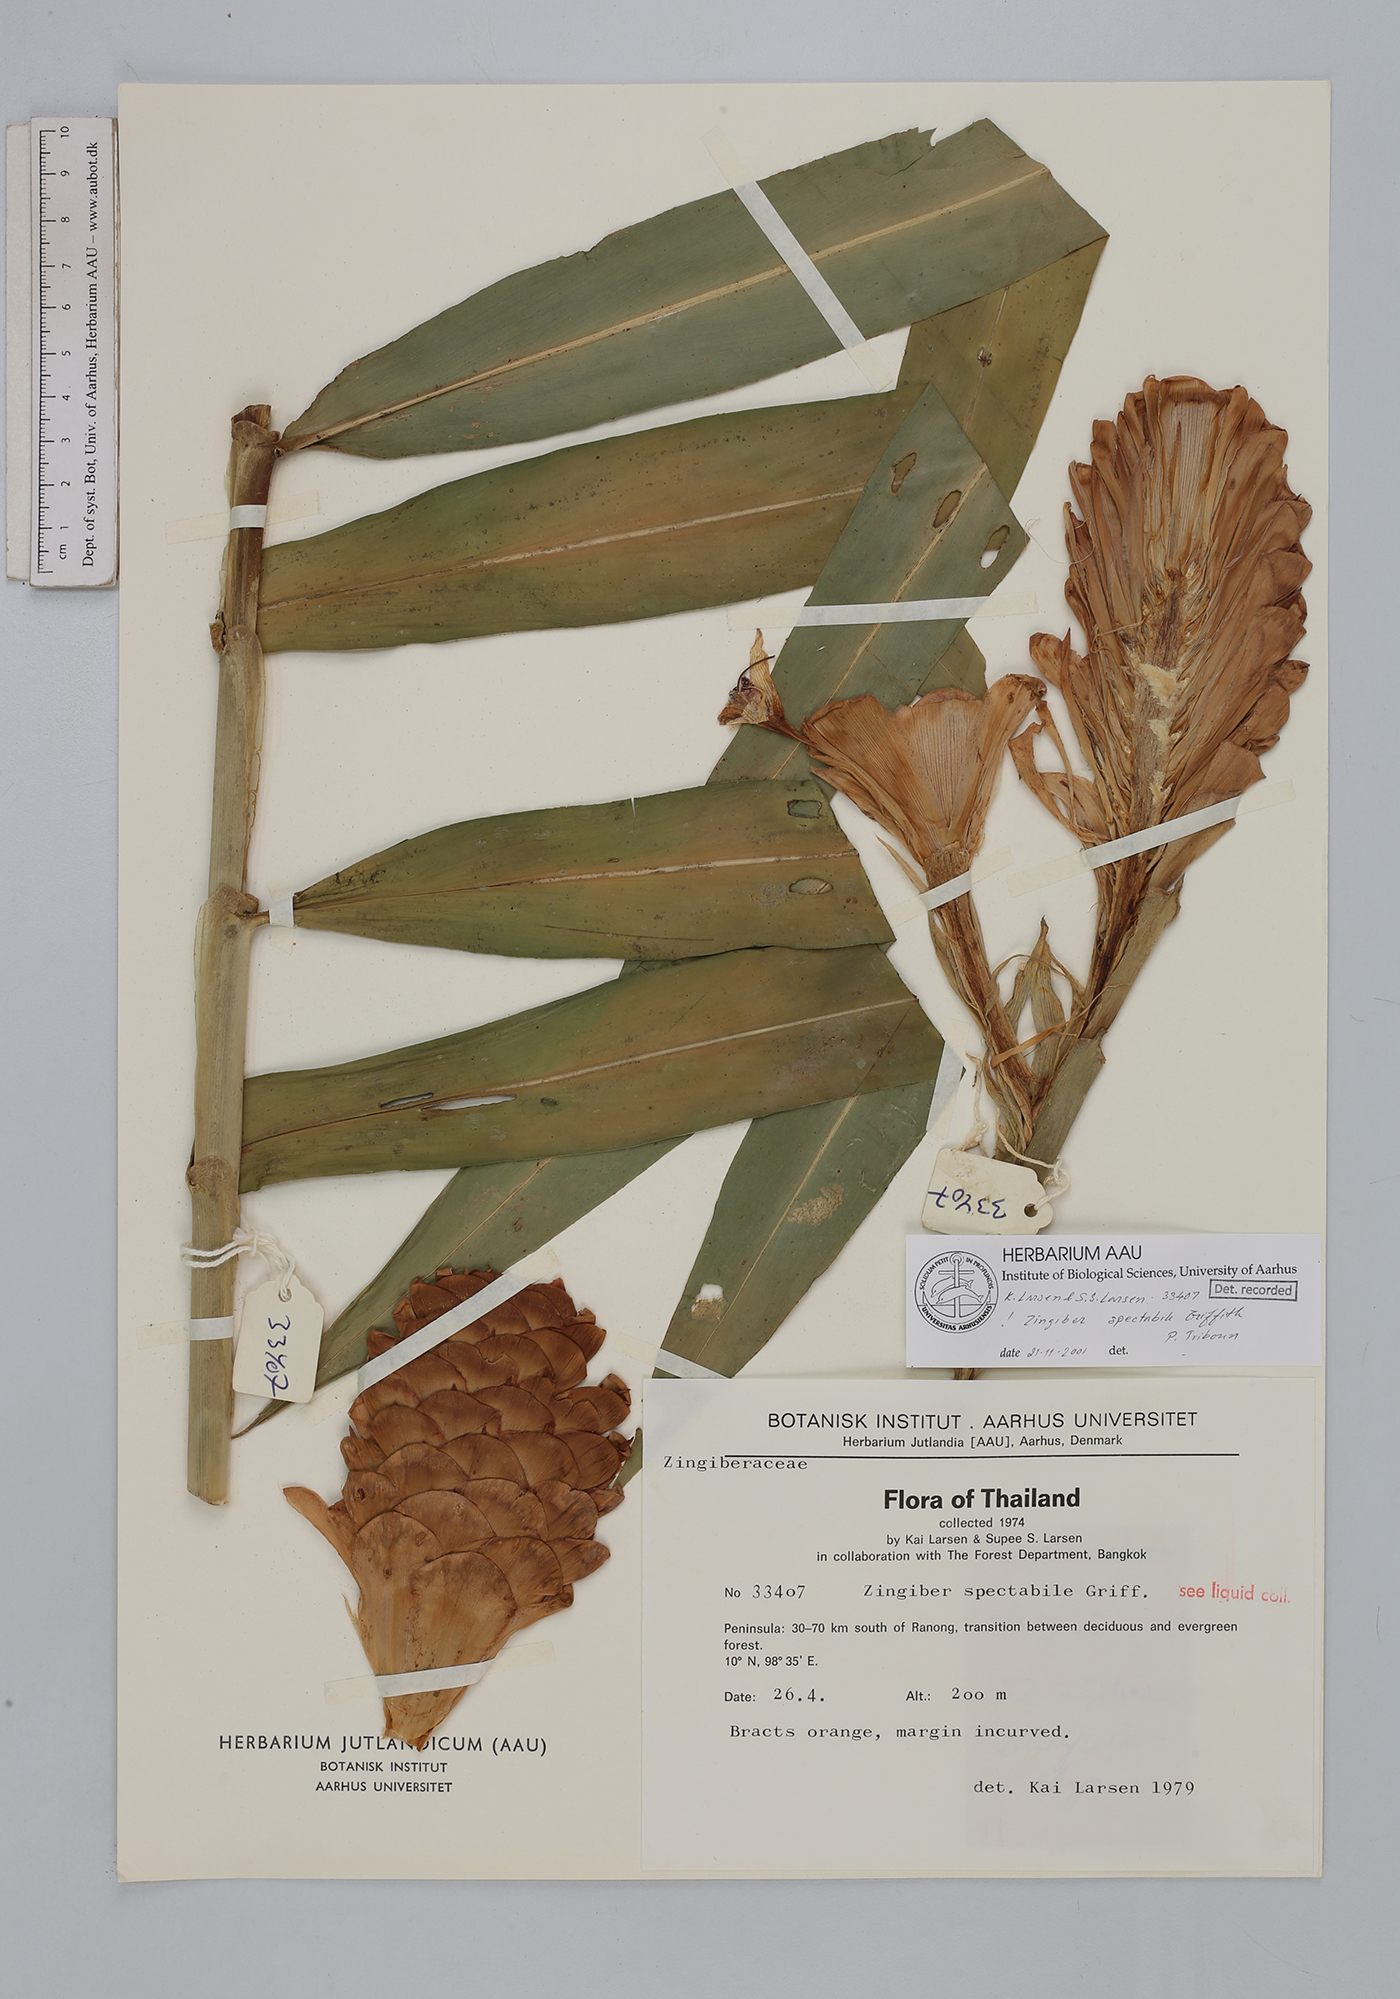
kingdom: Plantae
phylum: Tracheophyta
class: Liliopsida
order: Zingiberales
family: Zingiberaceae
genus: Zingiber
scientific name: Zingiber spectabile
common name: Beehive ginger
